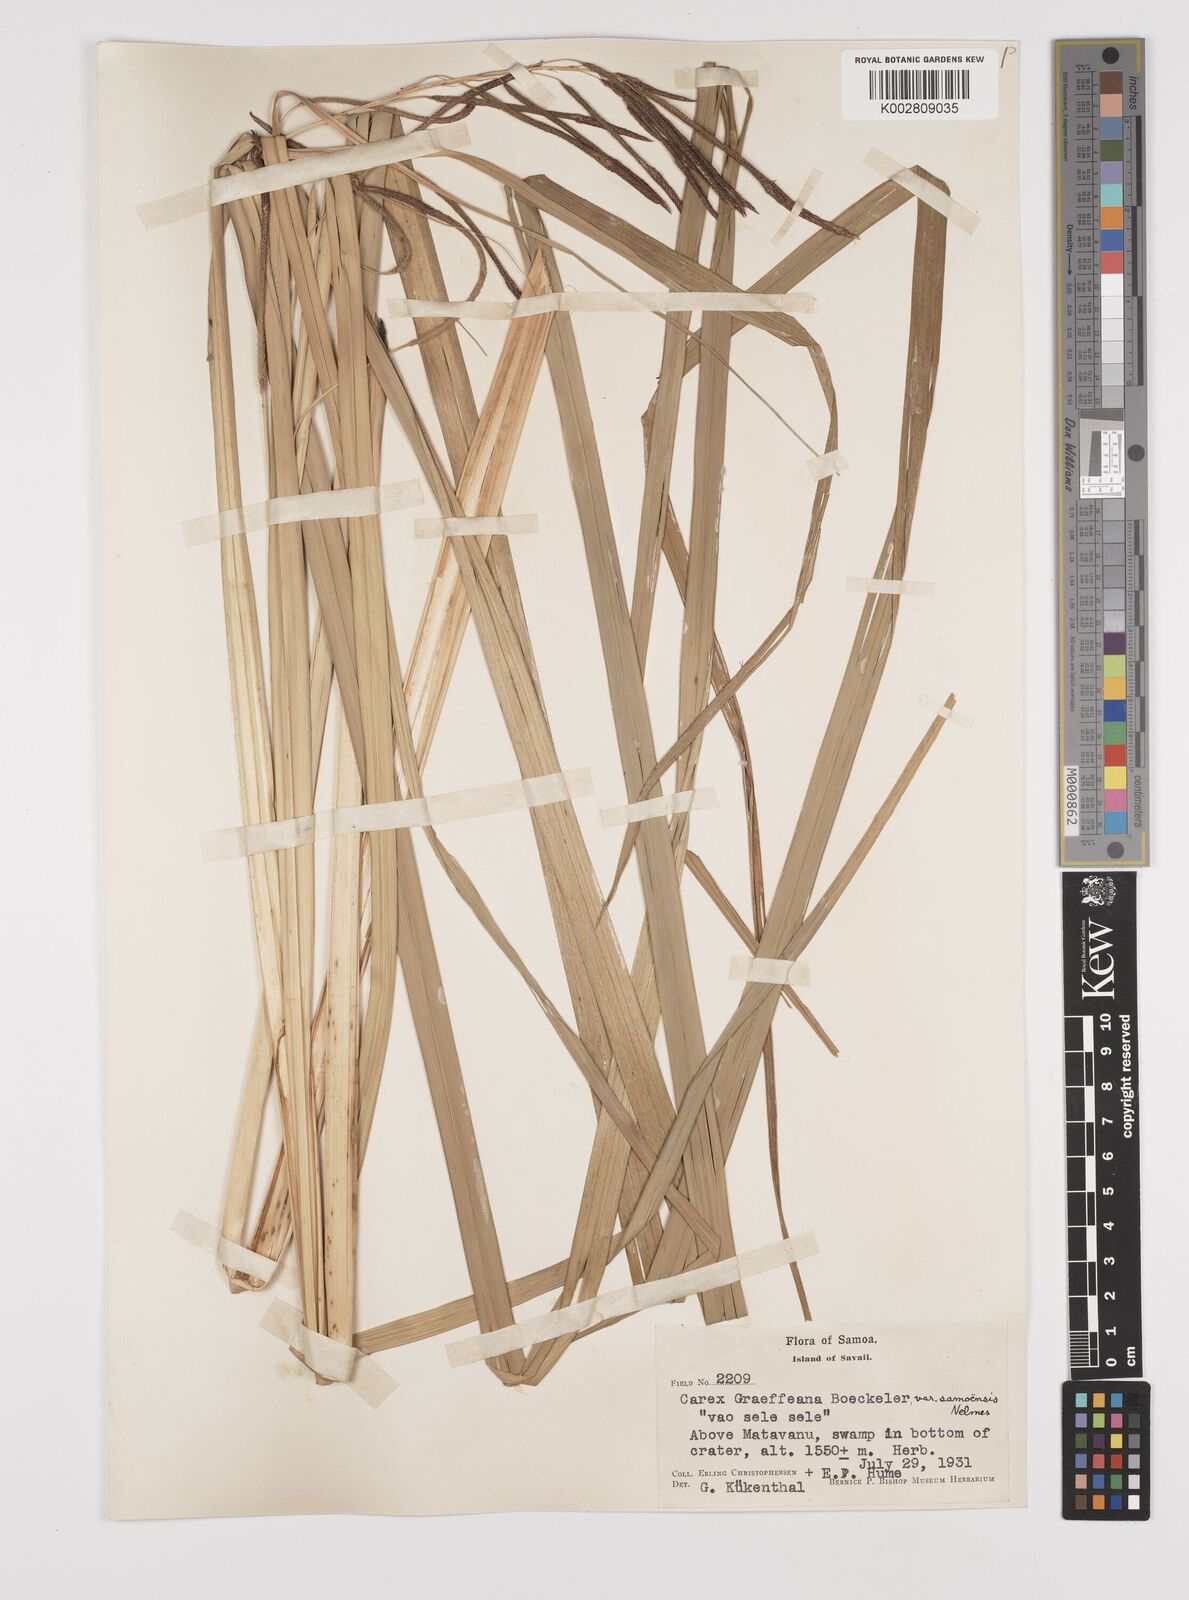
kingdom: Plantae
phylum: Tracheophyta
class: Liliopsida
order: Poales
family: Cyperaceae
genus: Carex
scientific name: Carex graeffeana
